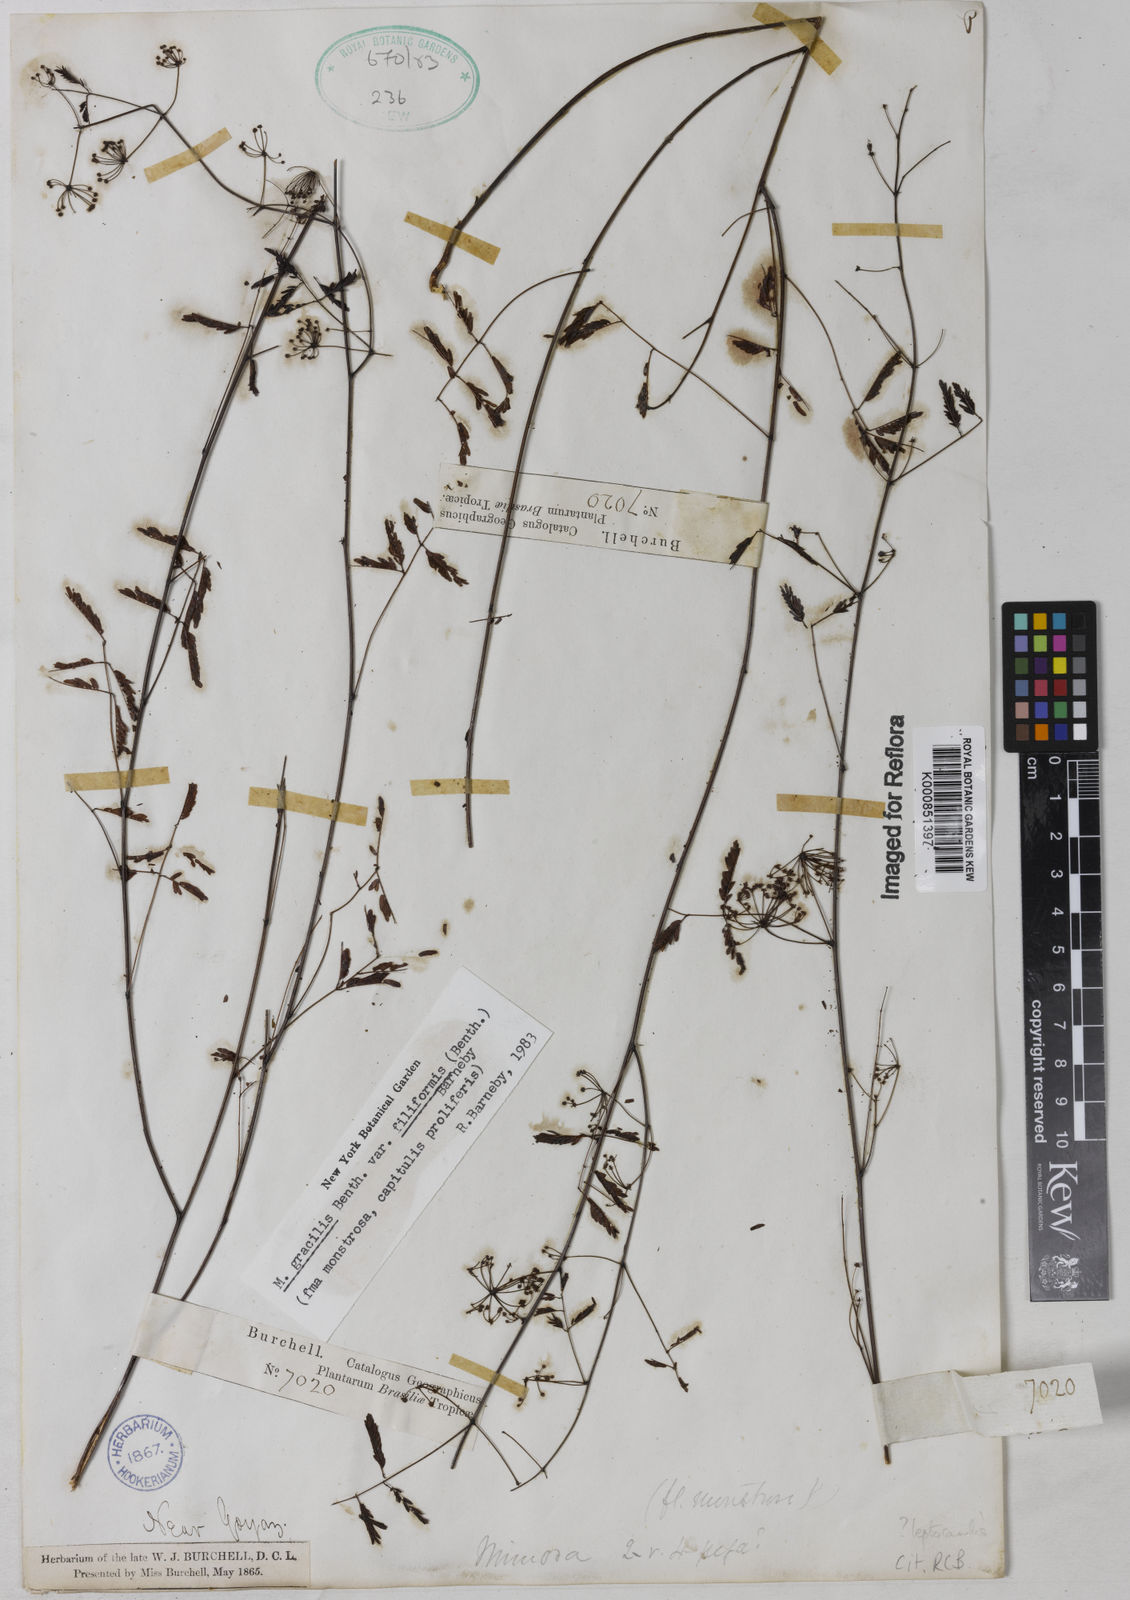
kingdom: Plantae
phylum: Tracheophyta
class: Magnoliopsida
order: Fabales
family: Fabaceae
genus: Mimosa
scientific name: Mimosa gracilis
